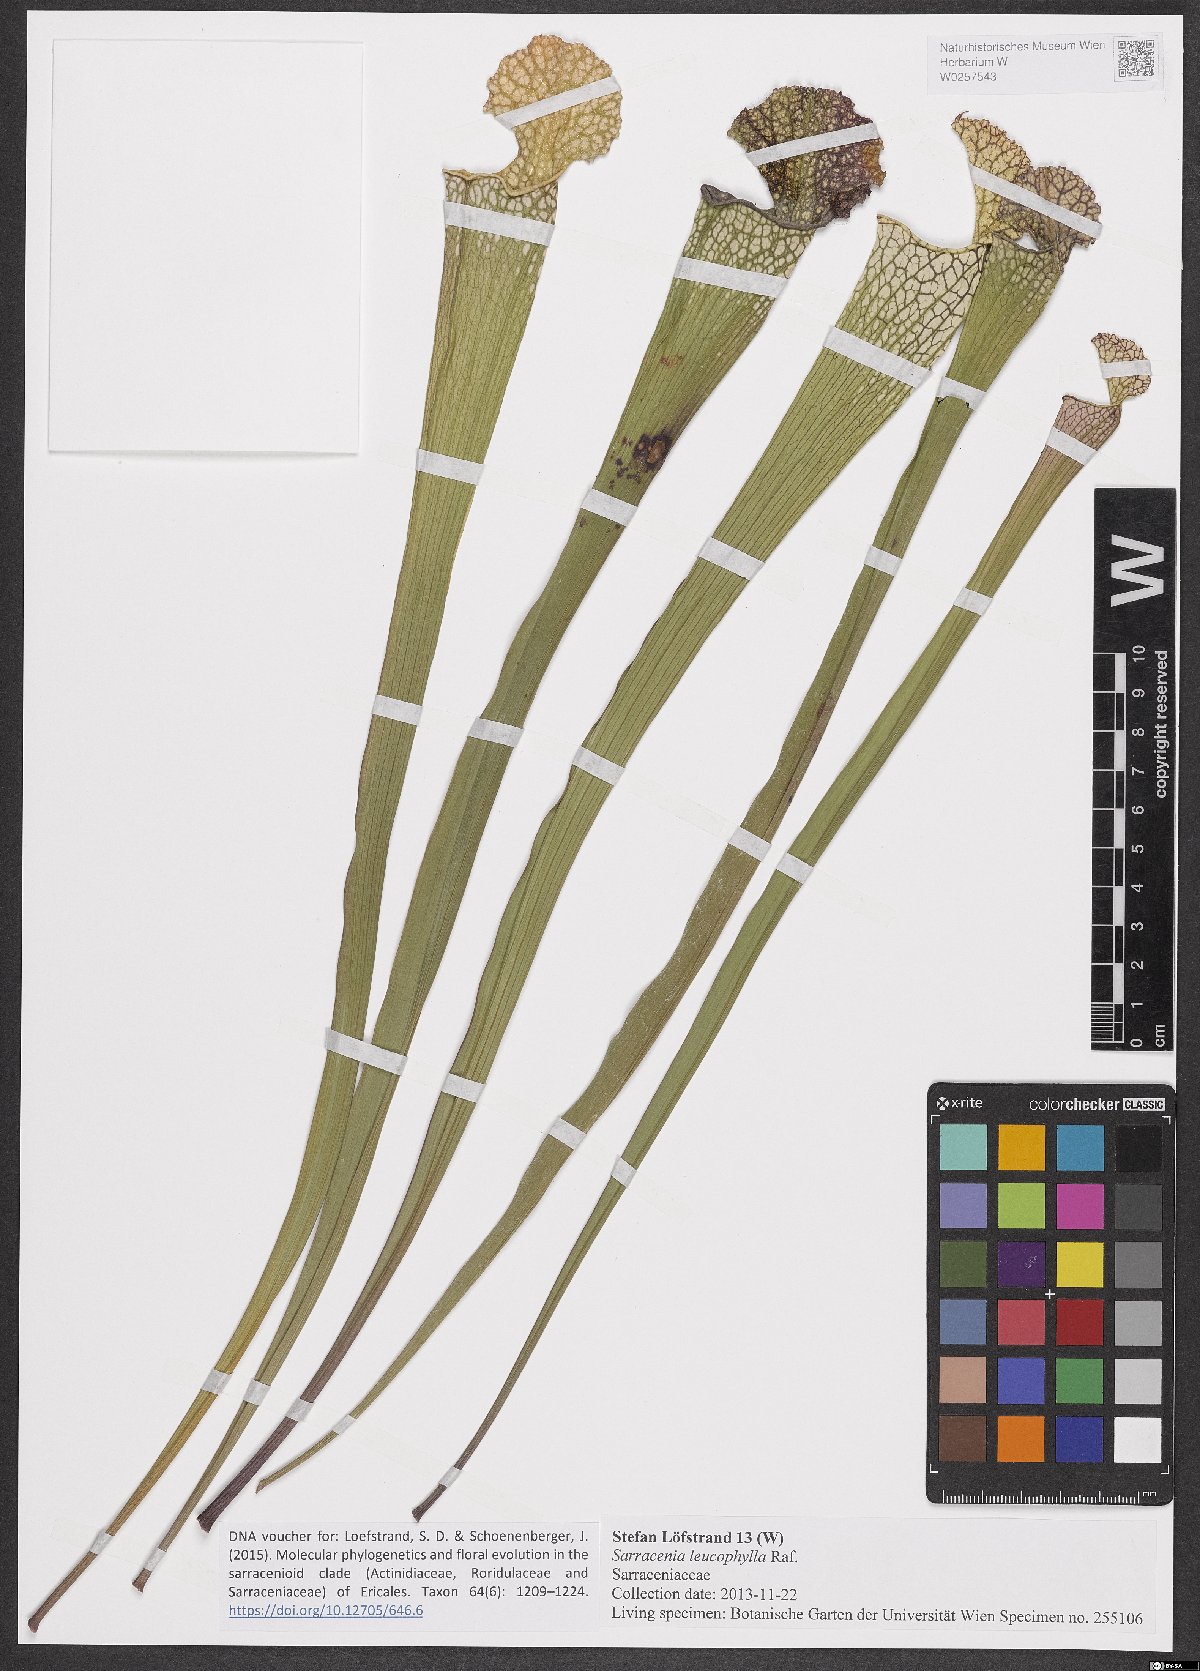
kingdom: Plantae
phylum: Tracheophyta
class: Magnoliopsida
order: Ericales
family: Sarraceniaceae
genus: Sarracenia
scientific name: Sarracenia leucophylla
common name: Purple trumpetleaf
